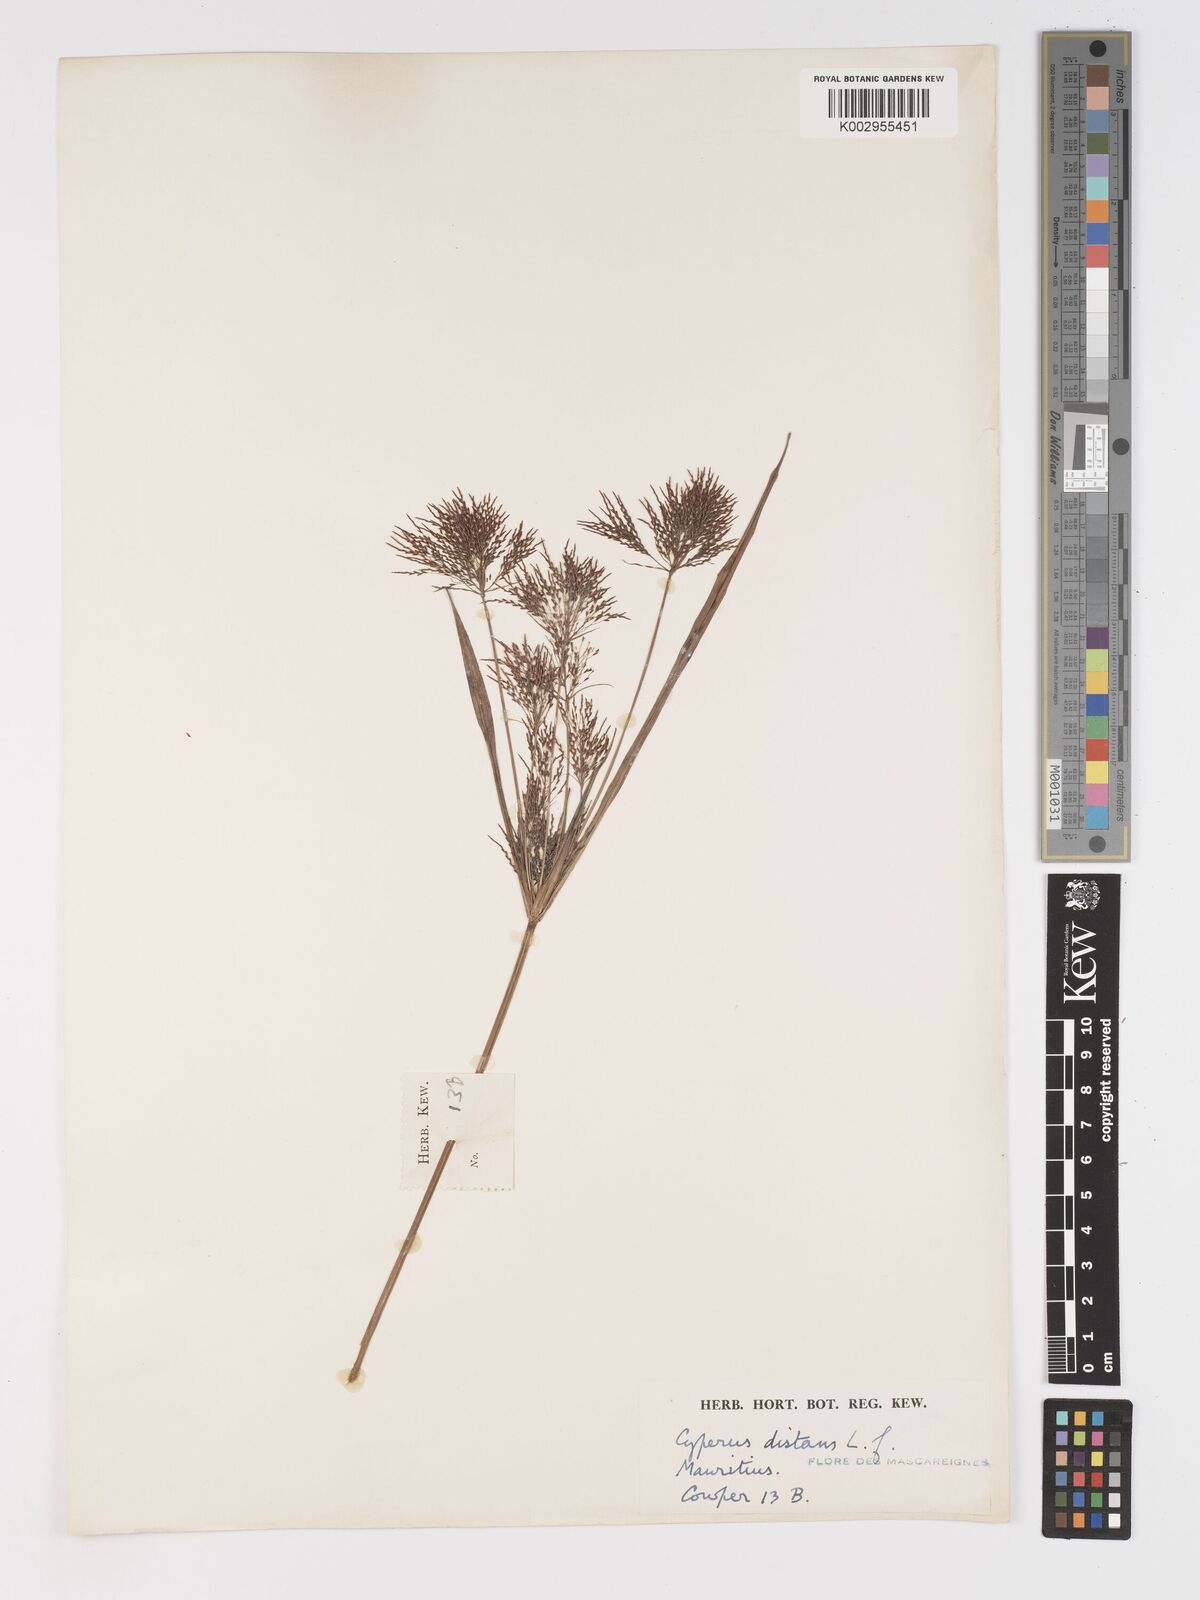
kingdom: Plantae
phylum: Tracheophyta
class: Liliopsida
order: Poales
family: Cyperaceae
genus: Cyperus
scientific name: Cyperus distans
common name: Slender cyperus
